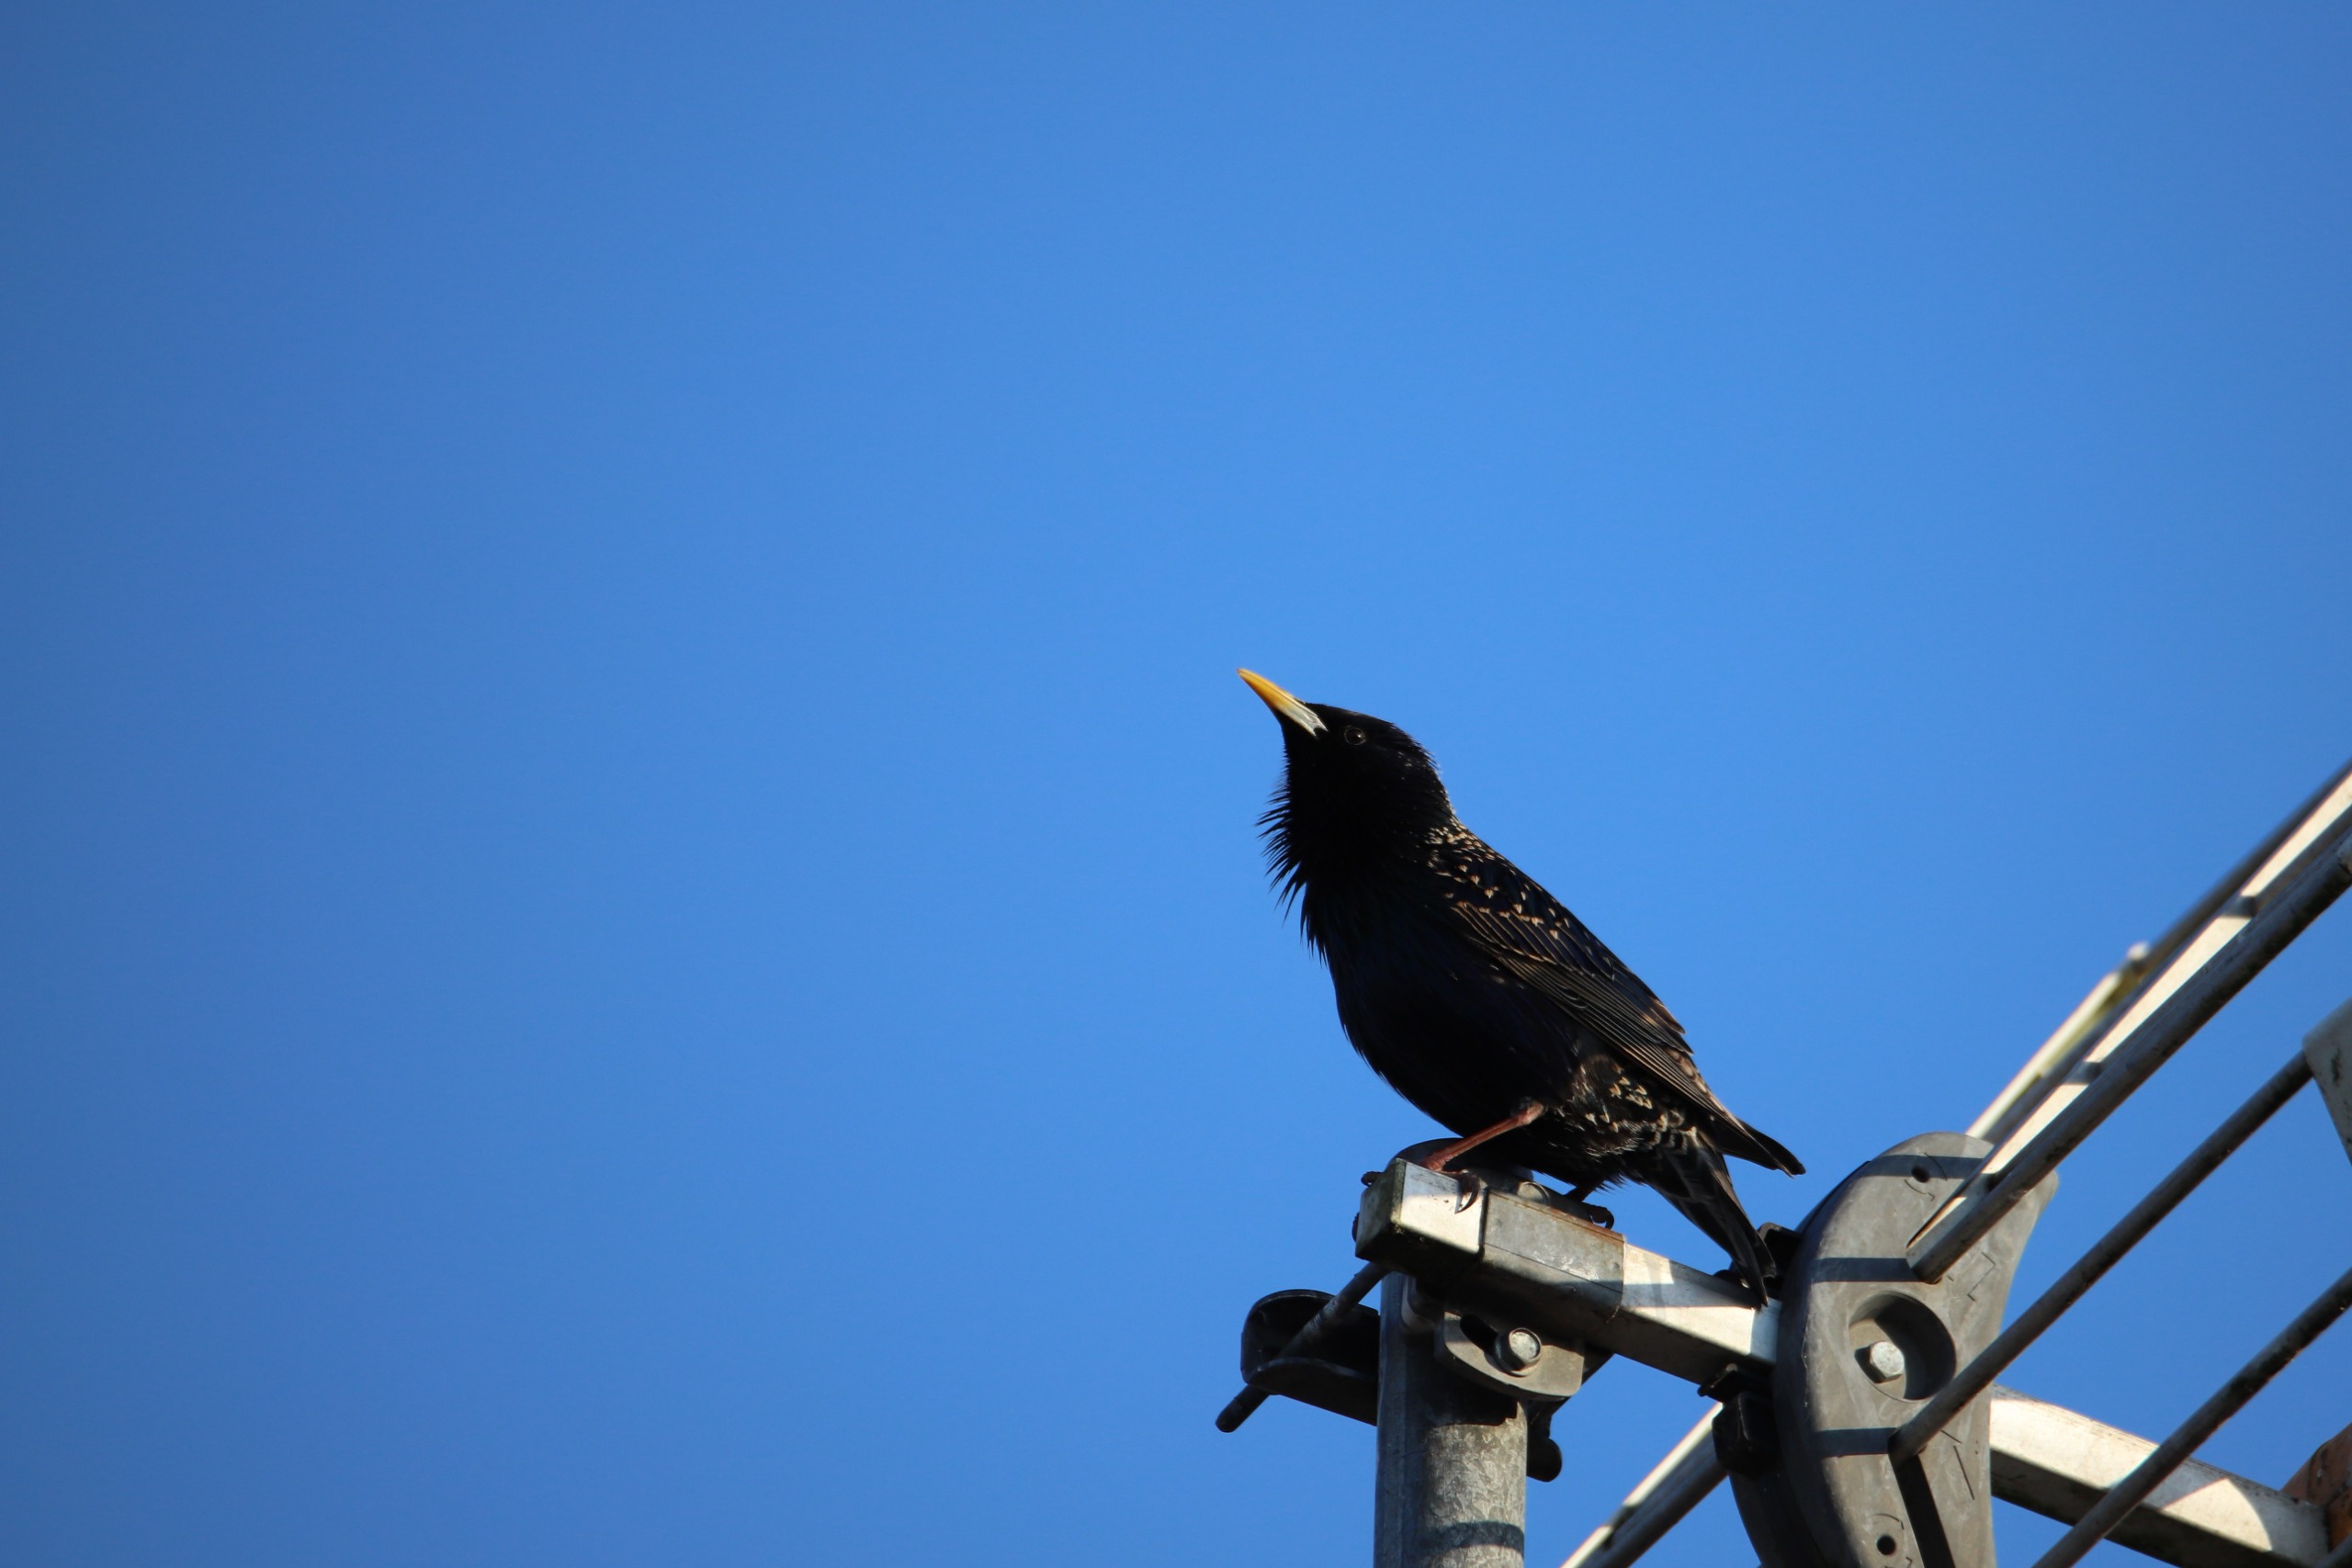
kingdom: Animalia
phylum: Chordata
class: Aves
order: Passeriformes
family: Sturnidae
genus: Sturnus
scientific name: Sturnus vulgaris
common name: Stær
